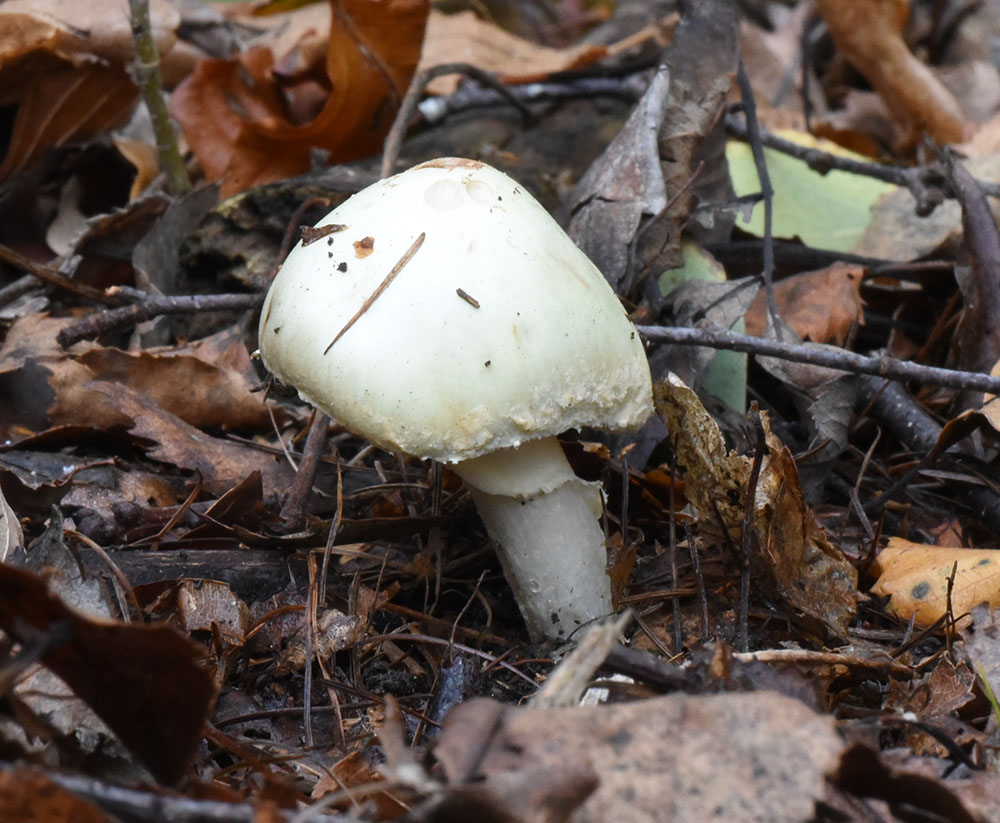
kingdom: Fungi
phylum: Basidiomycota
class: Agaricomycetes
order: Agaricales
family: Amanitaceae
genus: Amanita
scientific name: Amanita citrina
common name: False death-cap
